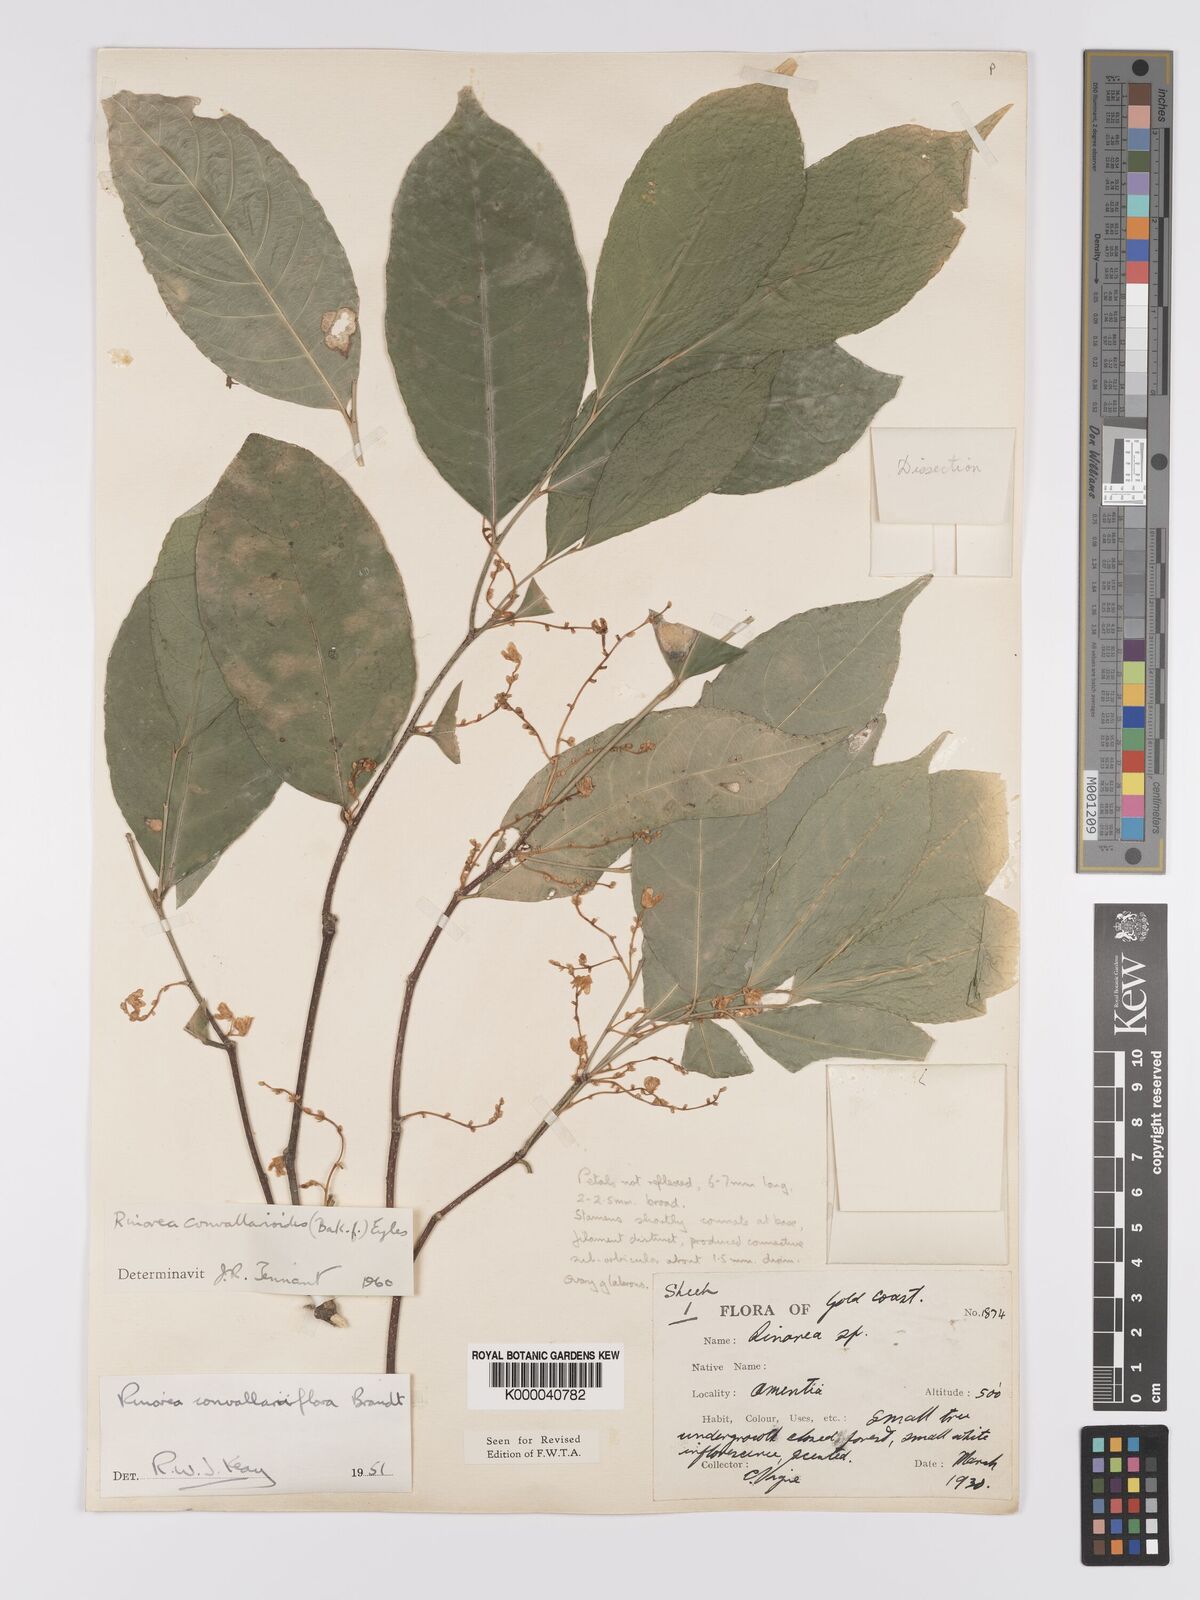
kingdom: Plantae
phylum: Tracheophyta
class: Magnoliopsida
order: Malpighiales
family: Violaceae
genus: Rinorea
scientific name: Rinorea convallarioides
